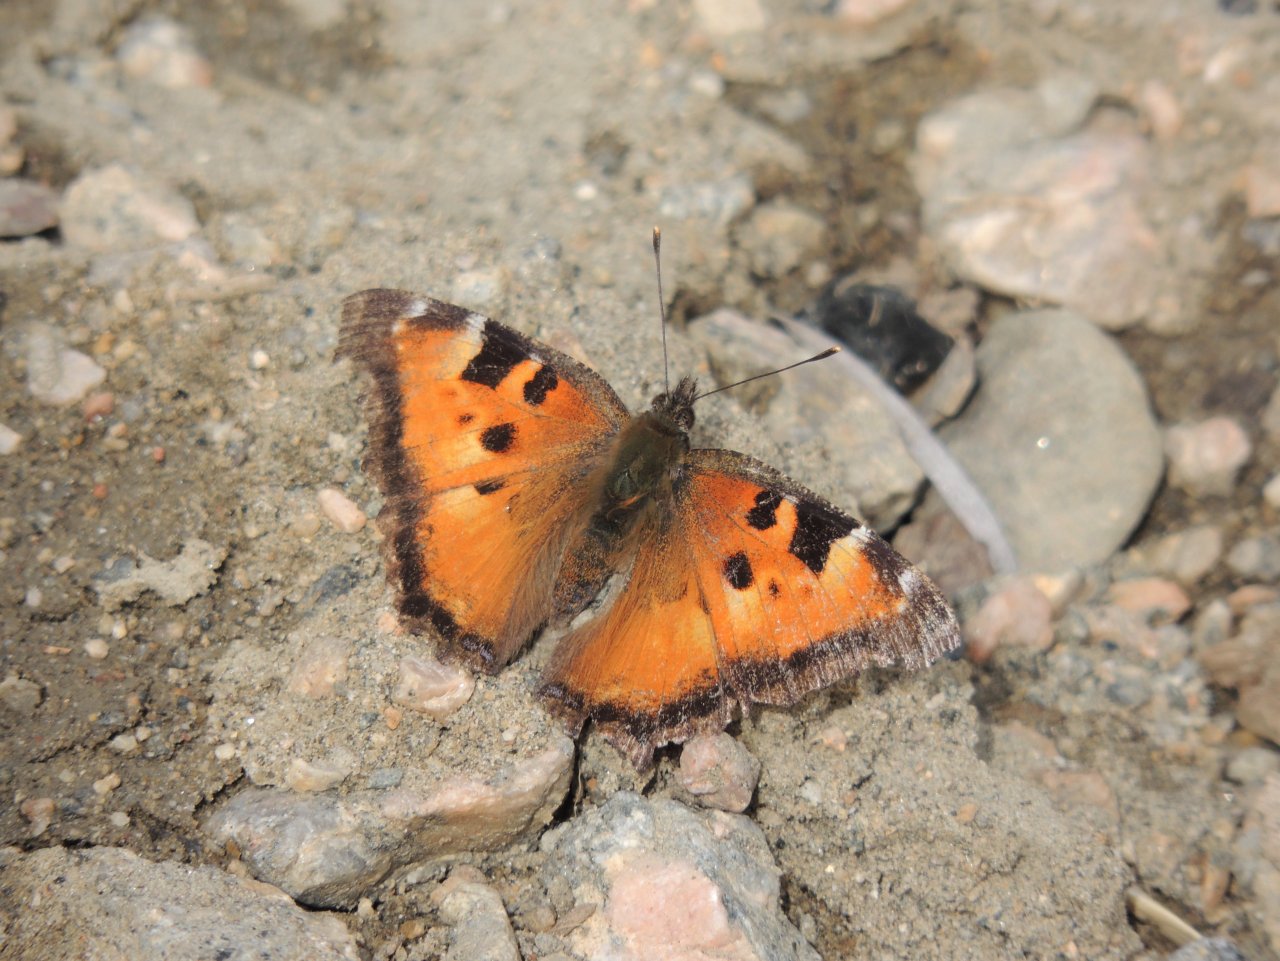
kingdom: Animalia
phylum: Arthropoda
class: Insecta
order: Lepidoptera
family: Nymphalidae
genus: Nymphalis
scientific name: Nymphalis californica
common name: California Tortoiseshell
